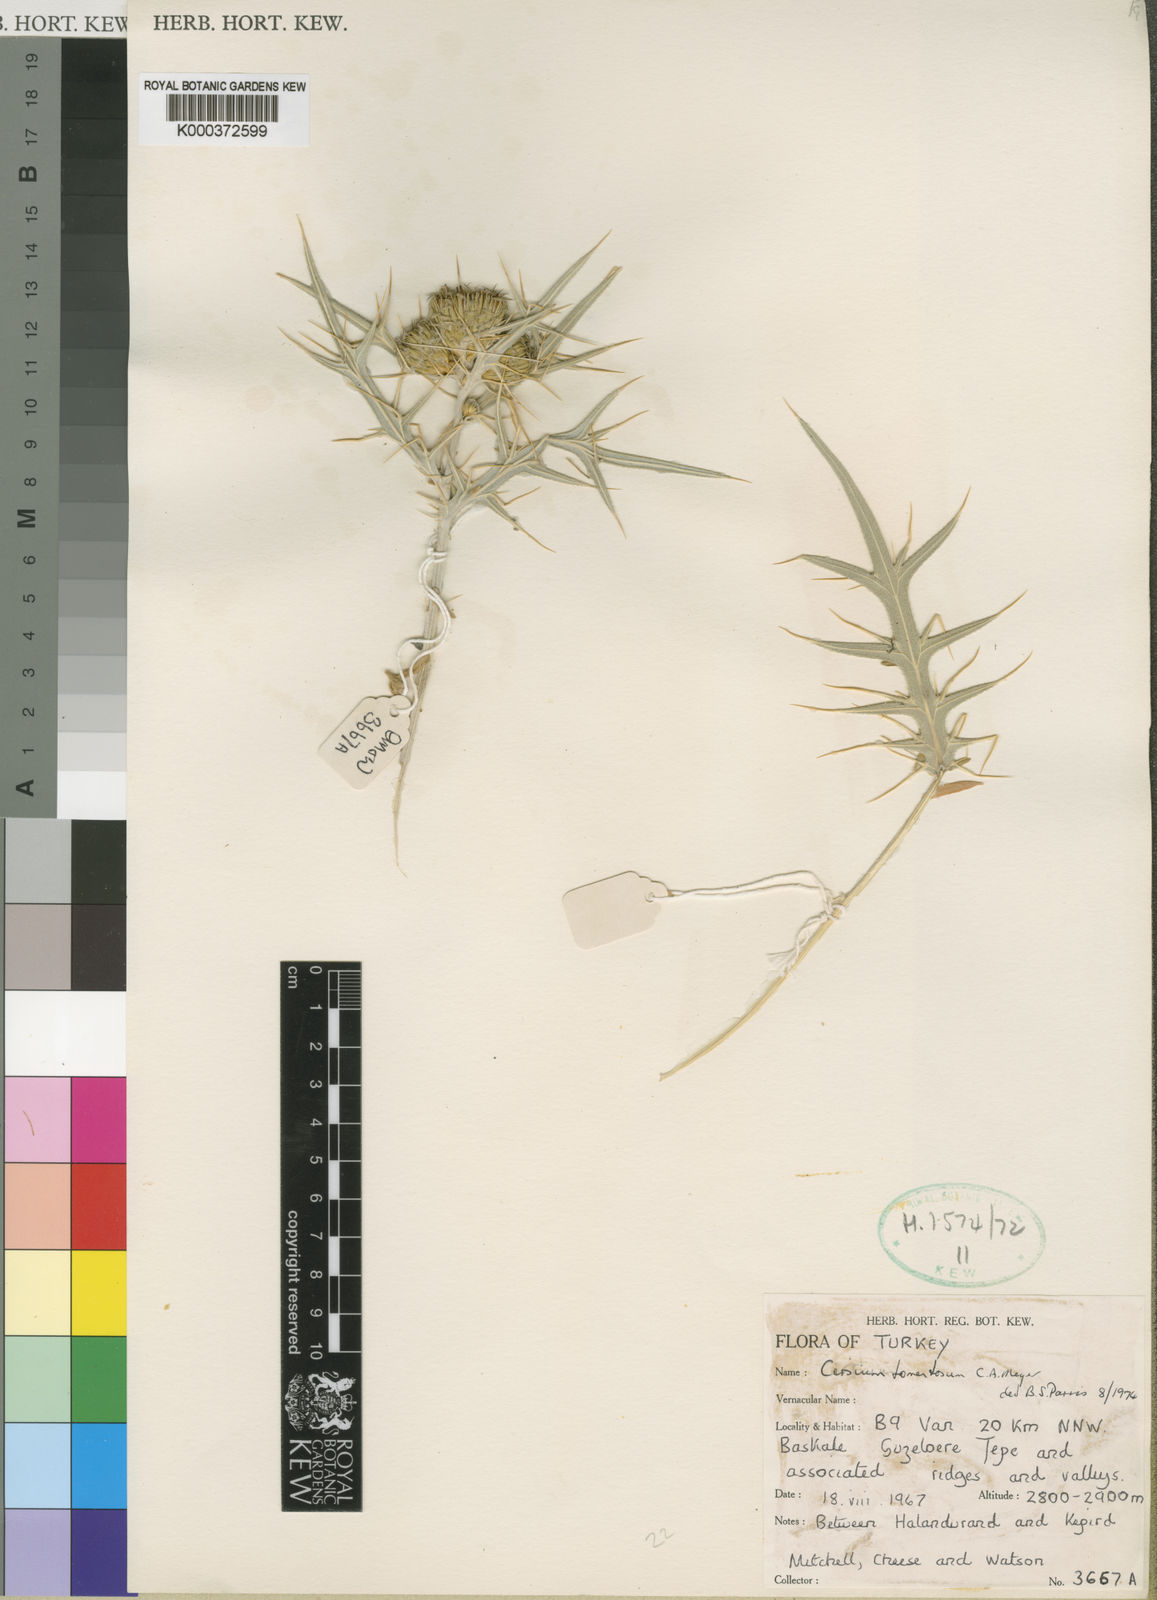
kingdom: Plantae
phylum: Tracheophyta
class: Magnoliopsida
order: Asterales
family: Asteraceae
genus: Lophiolepis
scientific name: Lophiolepis isophylla
